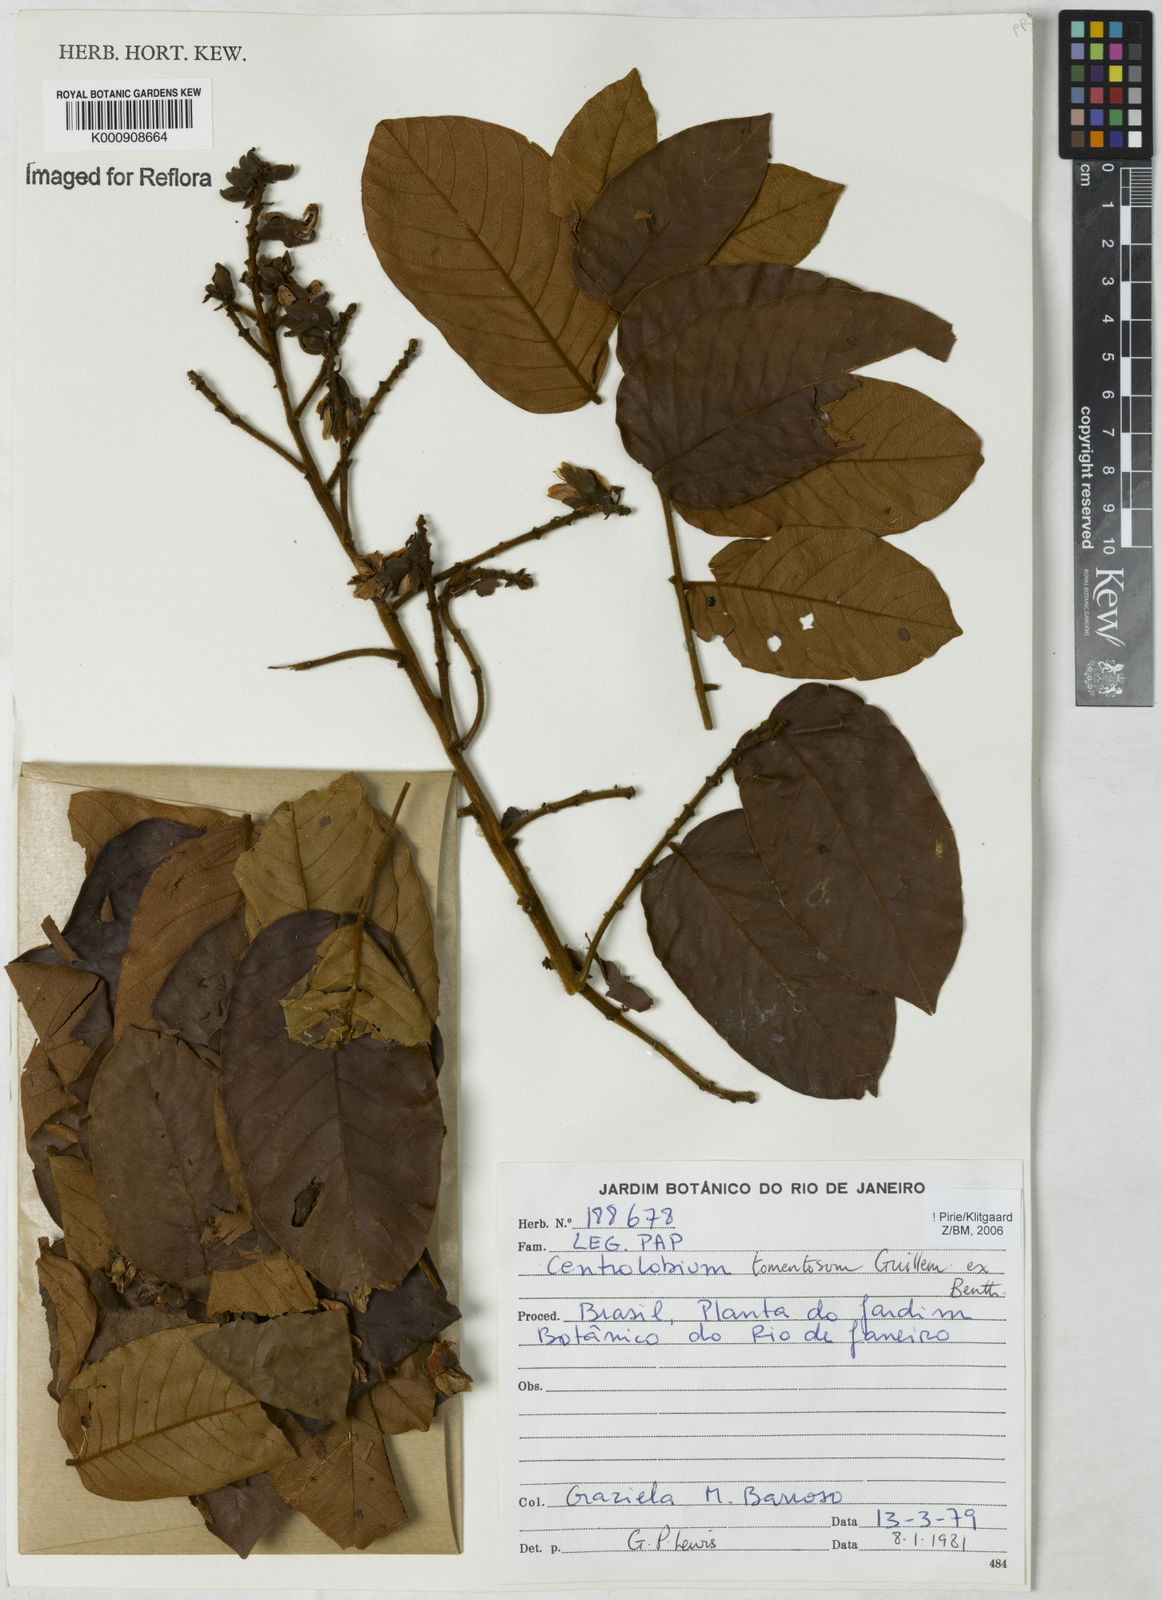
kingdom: Plantae
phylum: Tracheophyta
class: Magnoliopsida
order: Fabales
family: Fabaceae
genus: Centrolobium
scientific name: Centrolobium tomentosum
